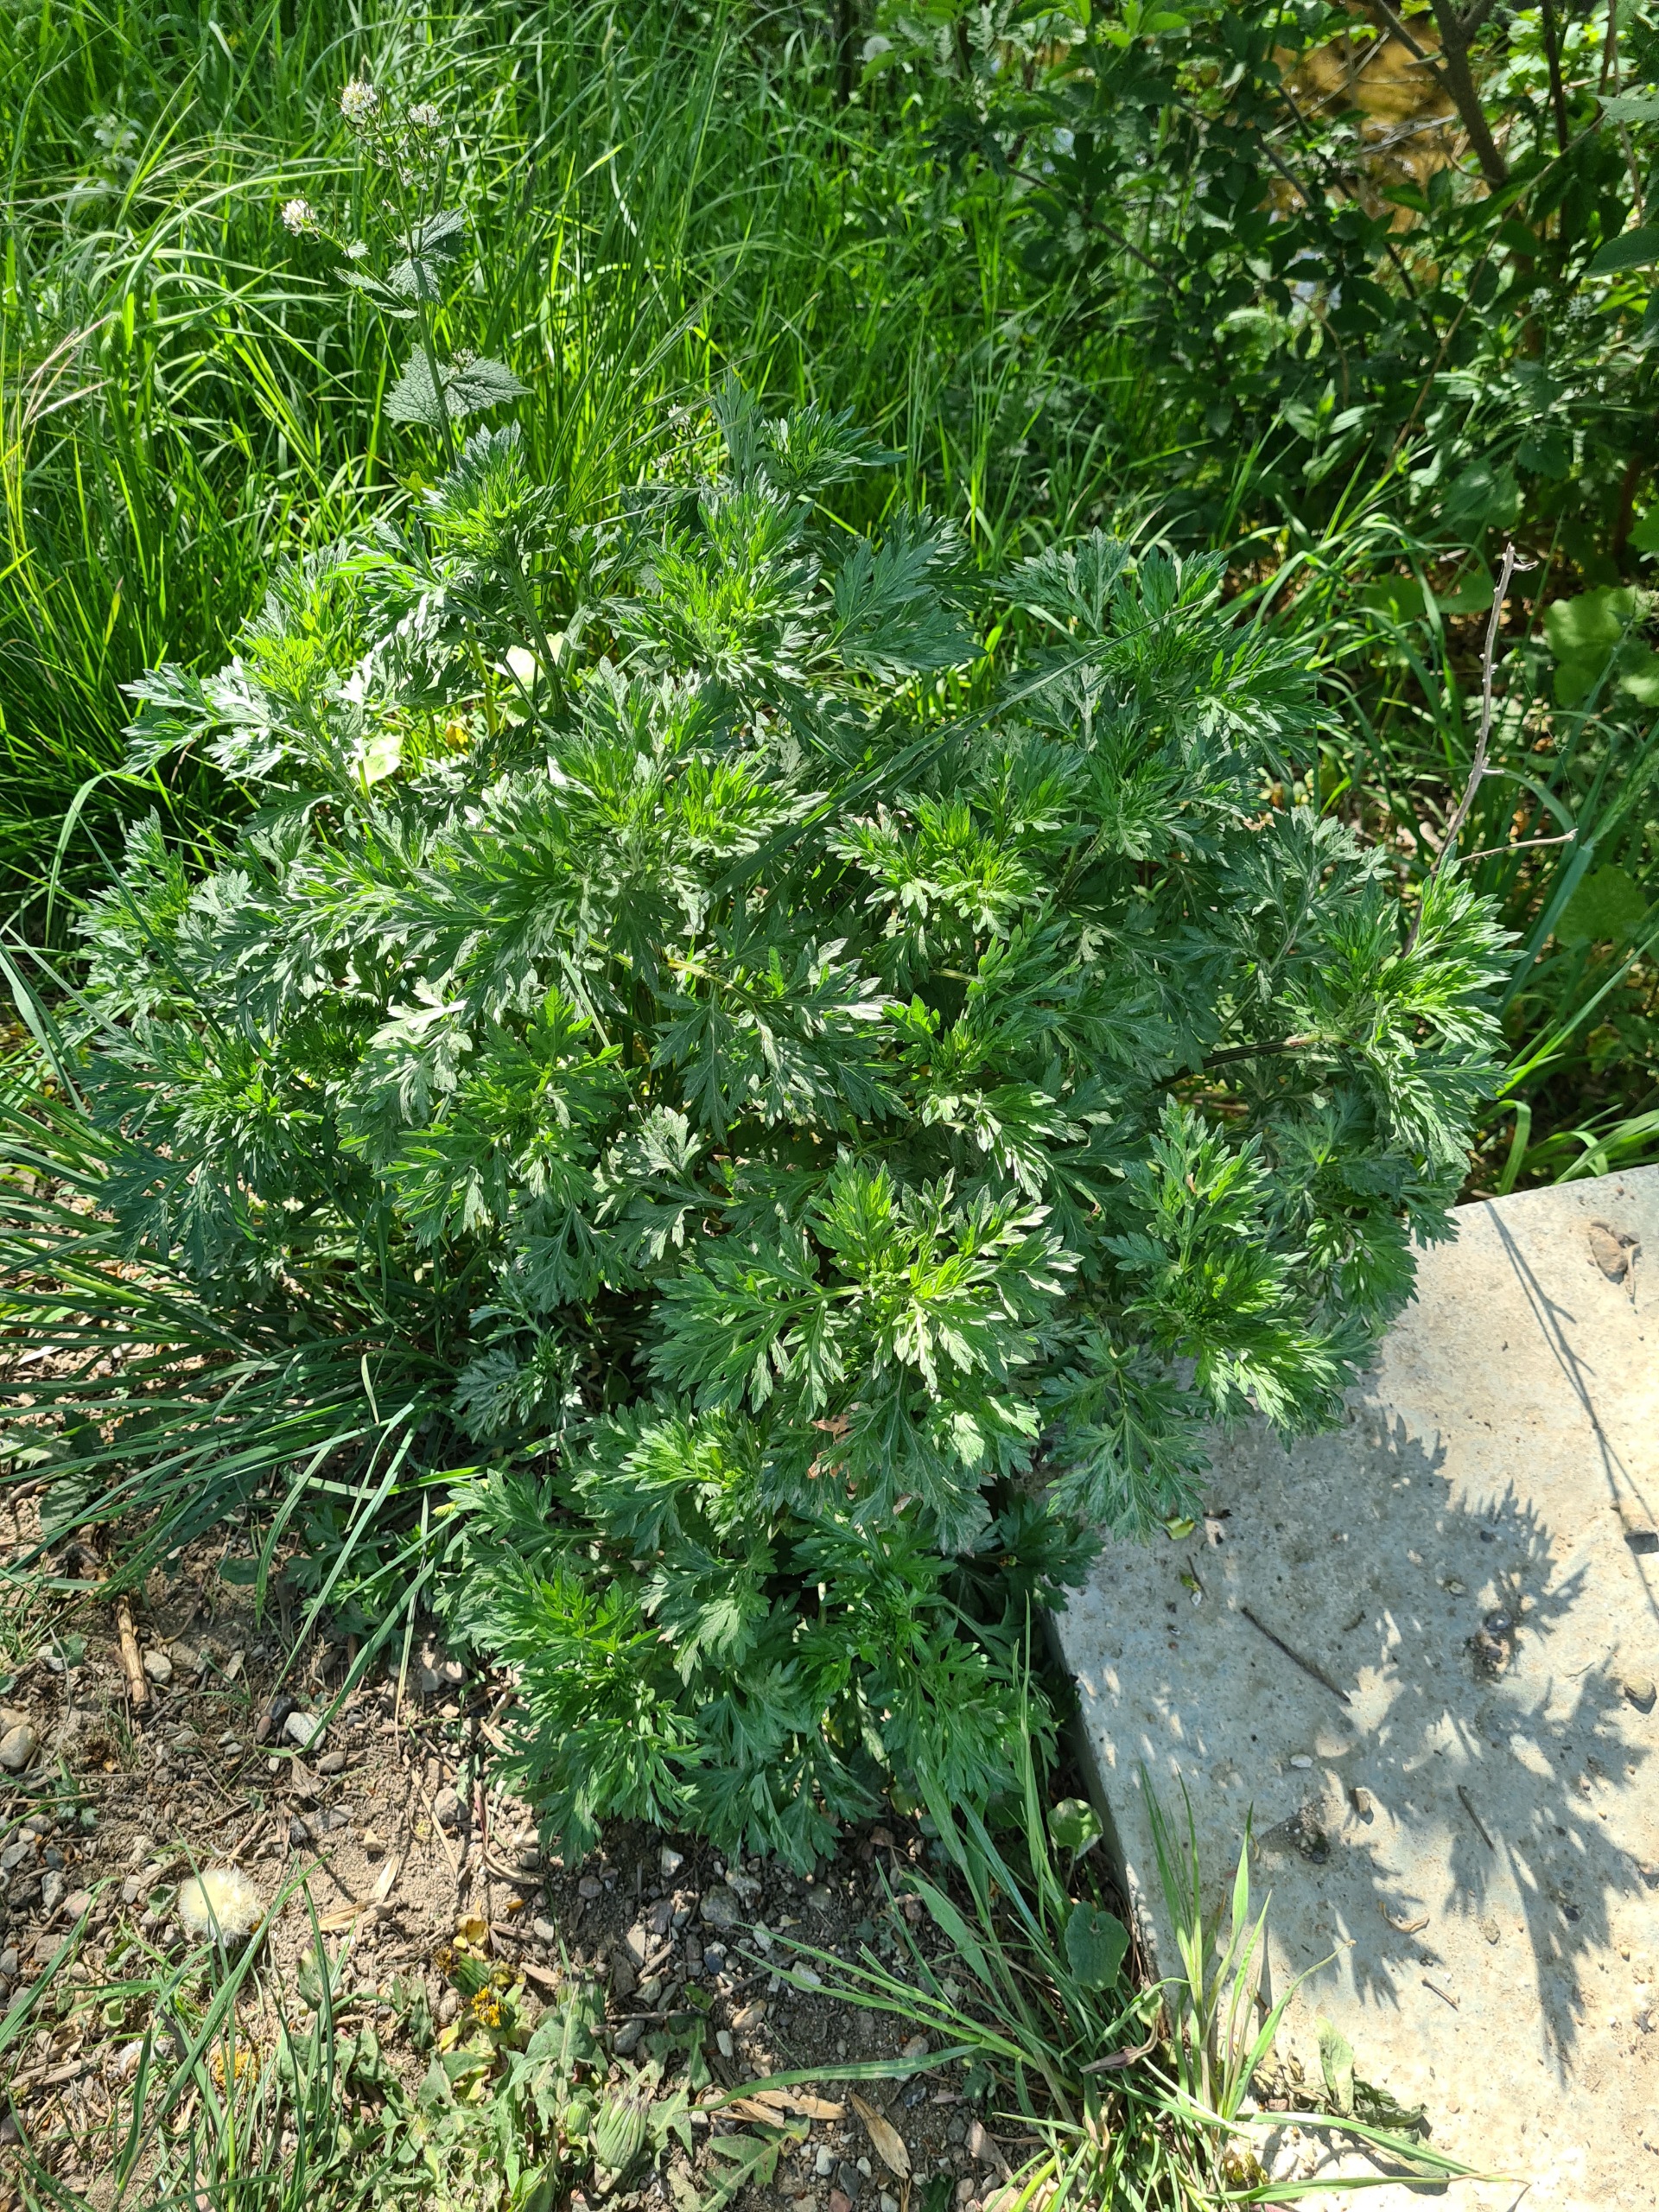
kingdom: Plantae
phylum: Tracheophyta
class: Magnoliopsida
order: Asterales
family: Asteraceae
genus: Artemisia
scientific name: Artemisia vulgaris
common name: Grå-bynke
